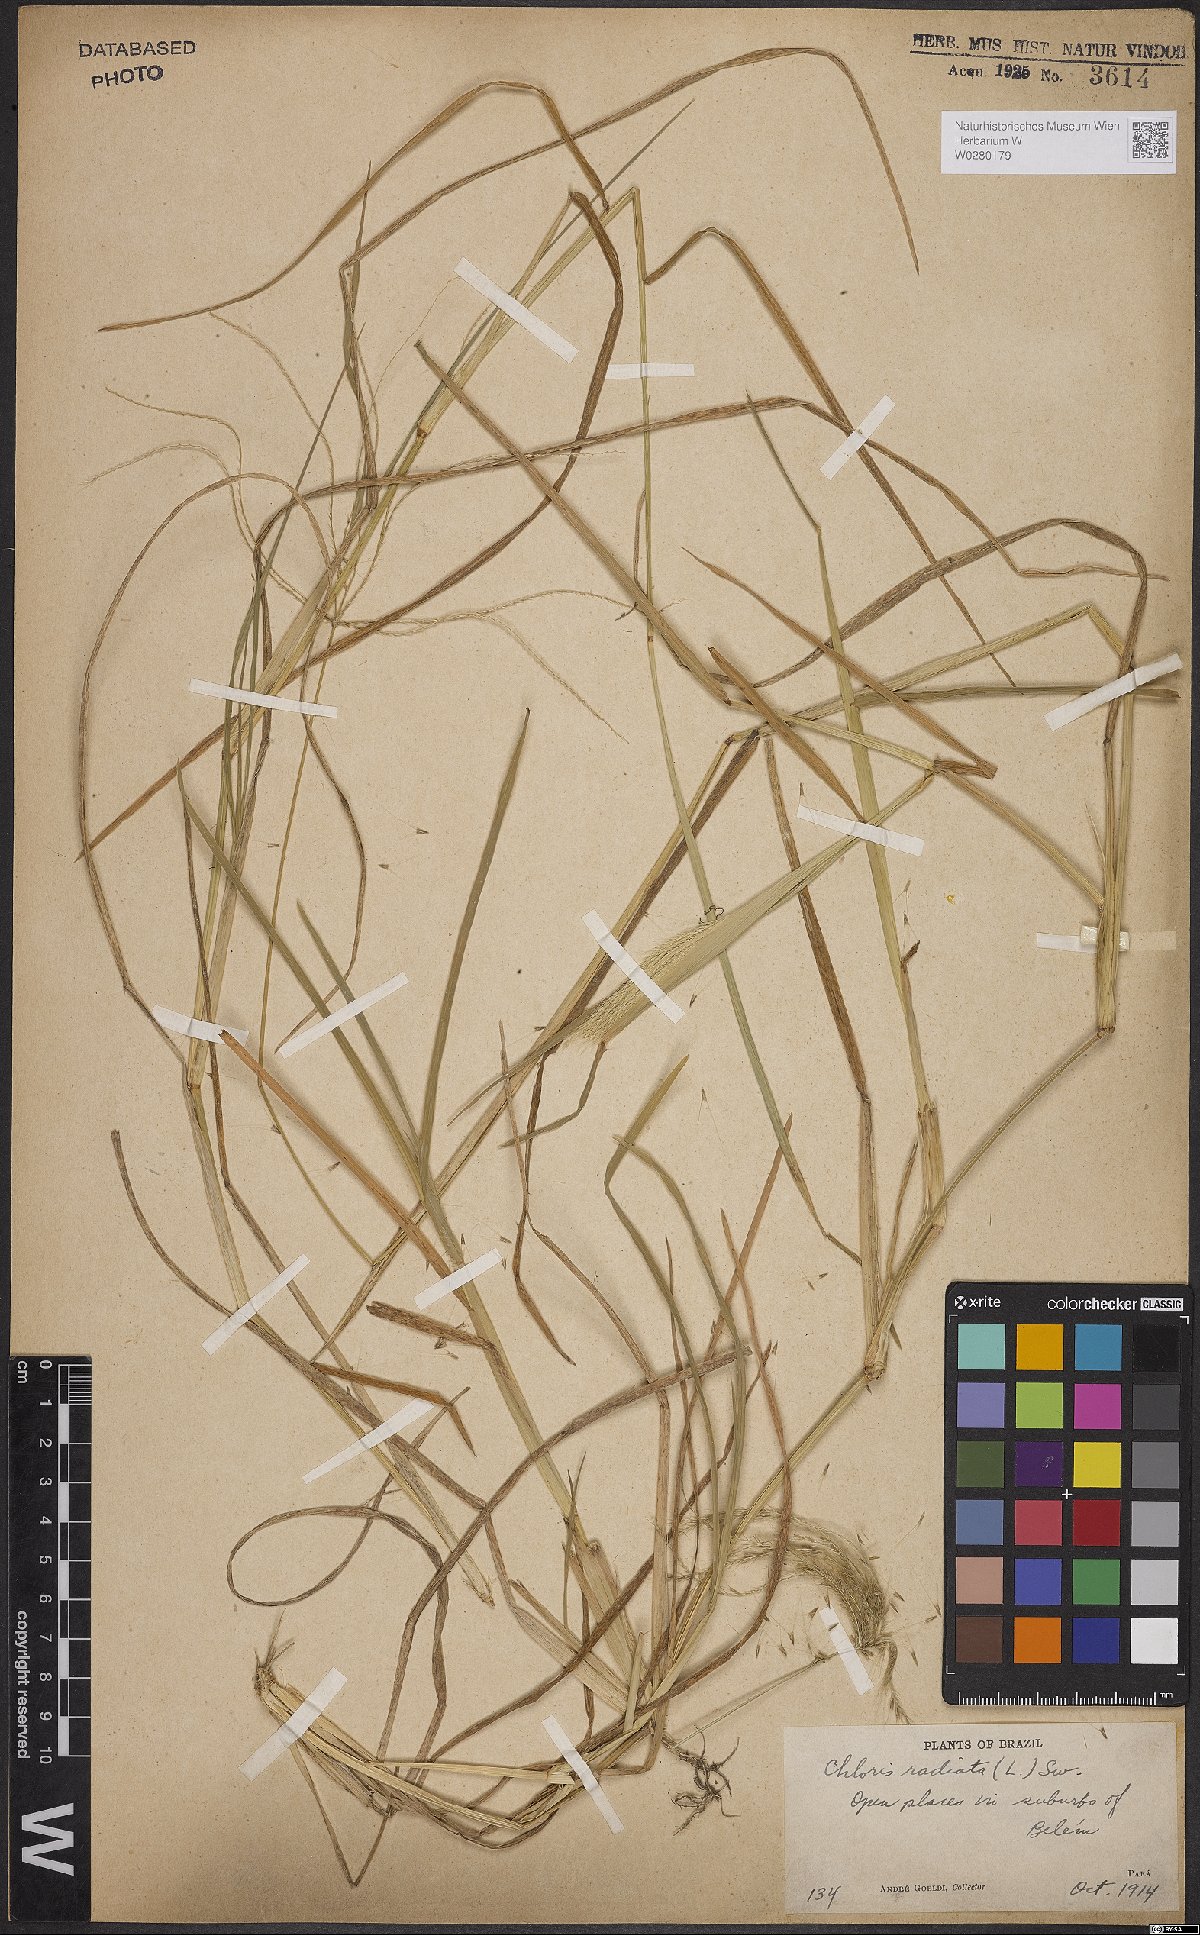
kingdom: Plantae
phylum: Tracheophyta
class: Liliopsida
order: Poales
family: Poaceae
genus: Chloris
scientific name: Chloris radiata
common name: Radiate fingergrass
